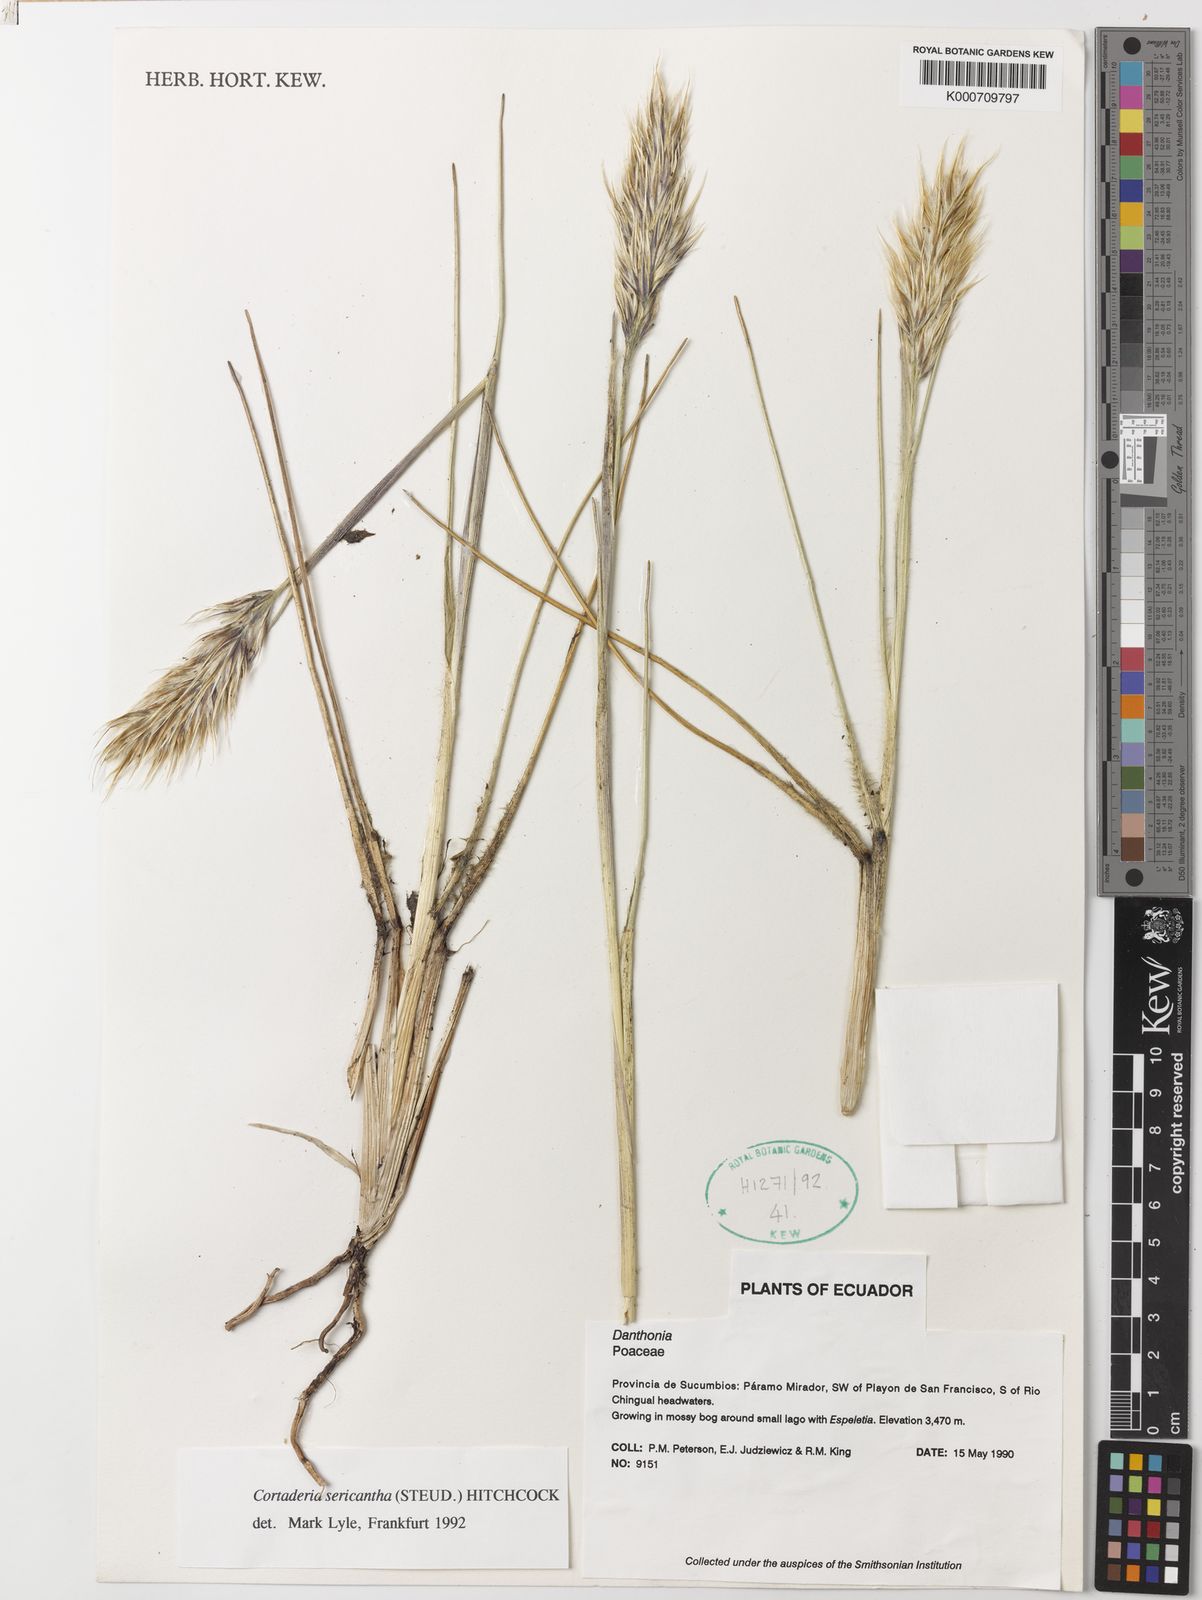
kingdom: Plantae
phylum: Tracheophyta
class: Liliopsida
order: Poales
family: Poaceae
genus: Cortaderia
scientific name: Cortaderia sericantha
